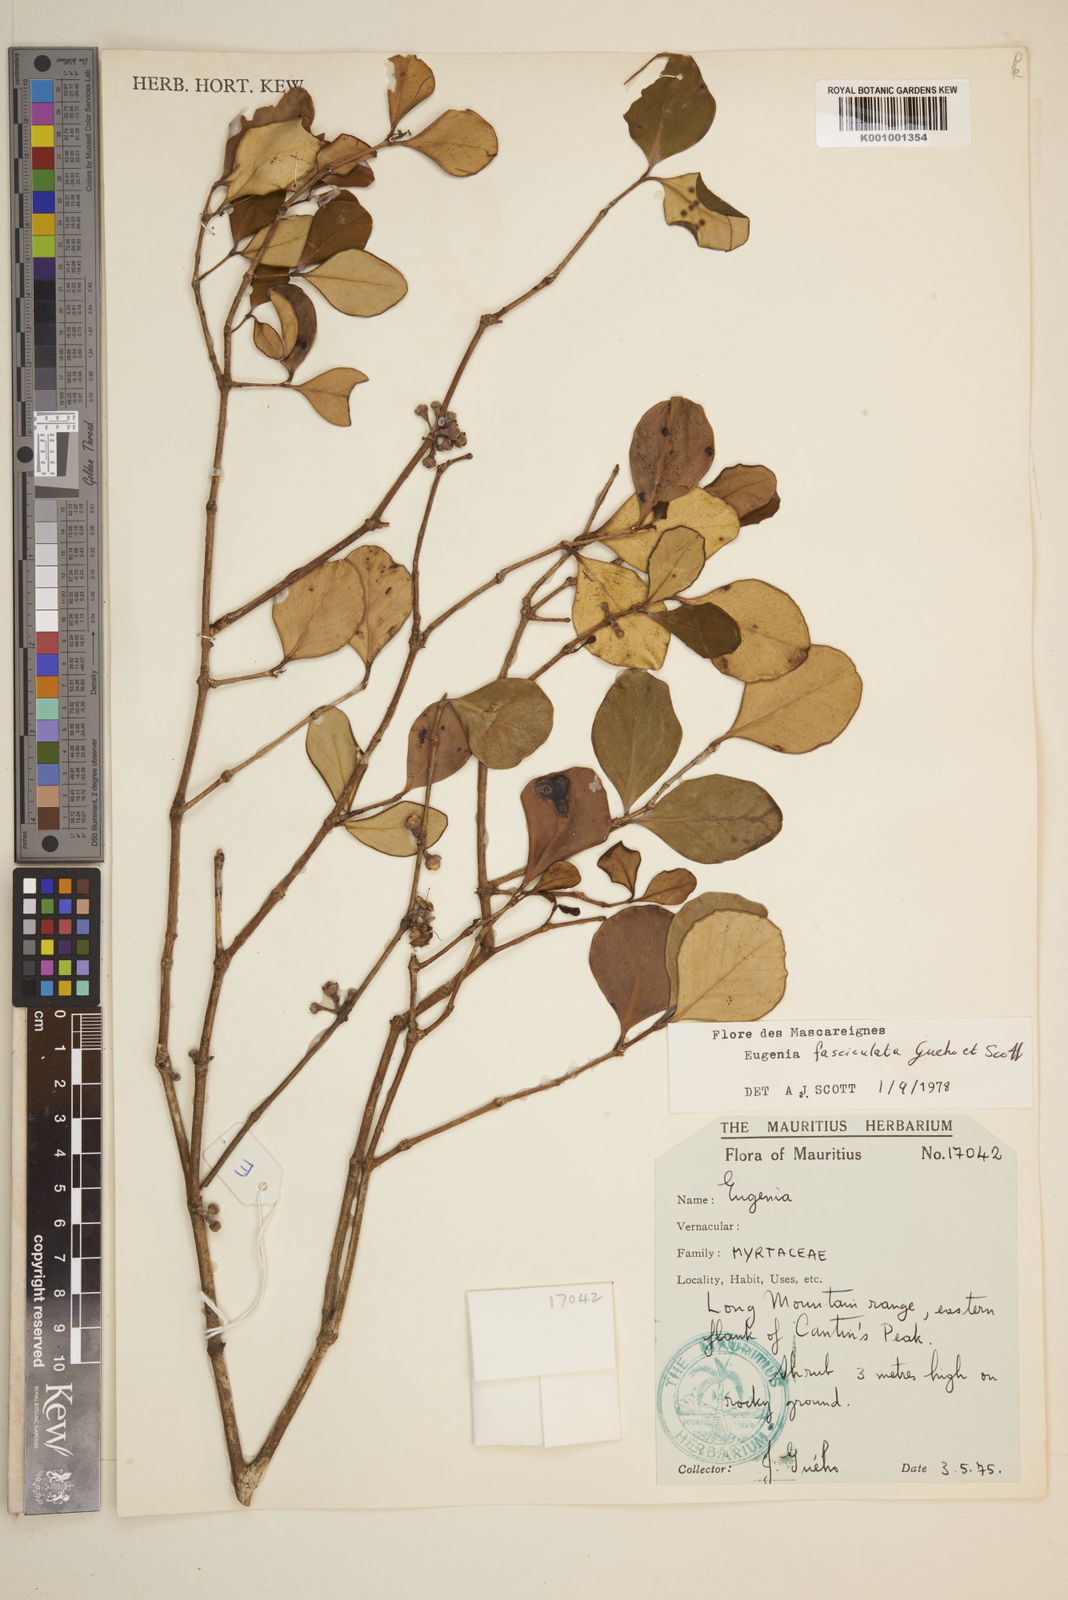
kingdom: Plantae
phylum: Tracheophyta
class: Magnoliopsida
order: Myrtales
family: Myrtaceae
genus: Eugenia
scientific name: Eugenia roxburghii
